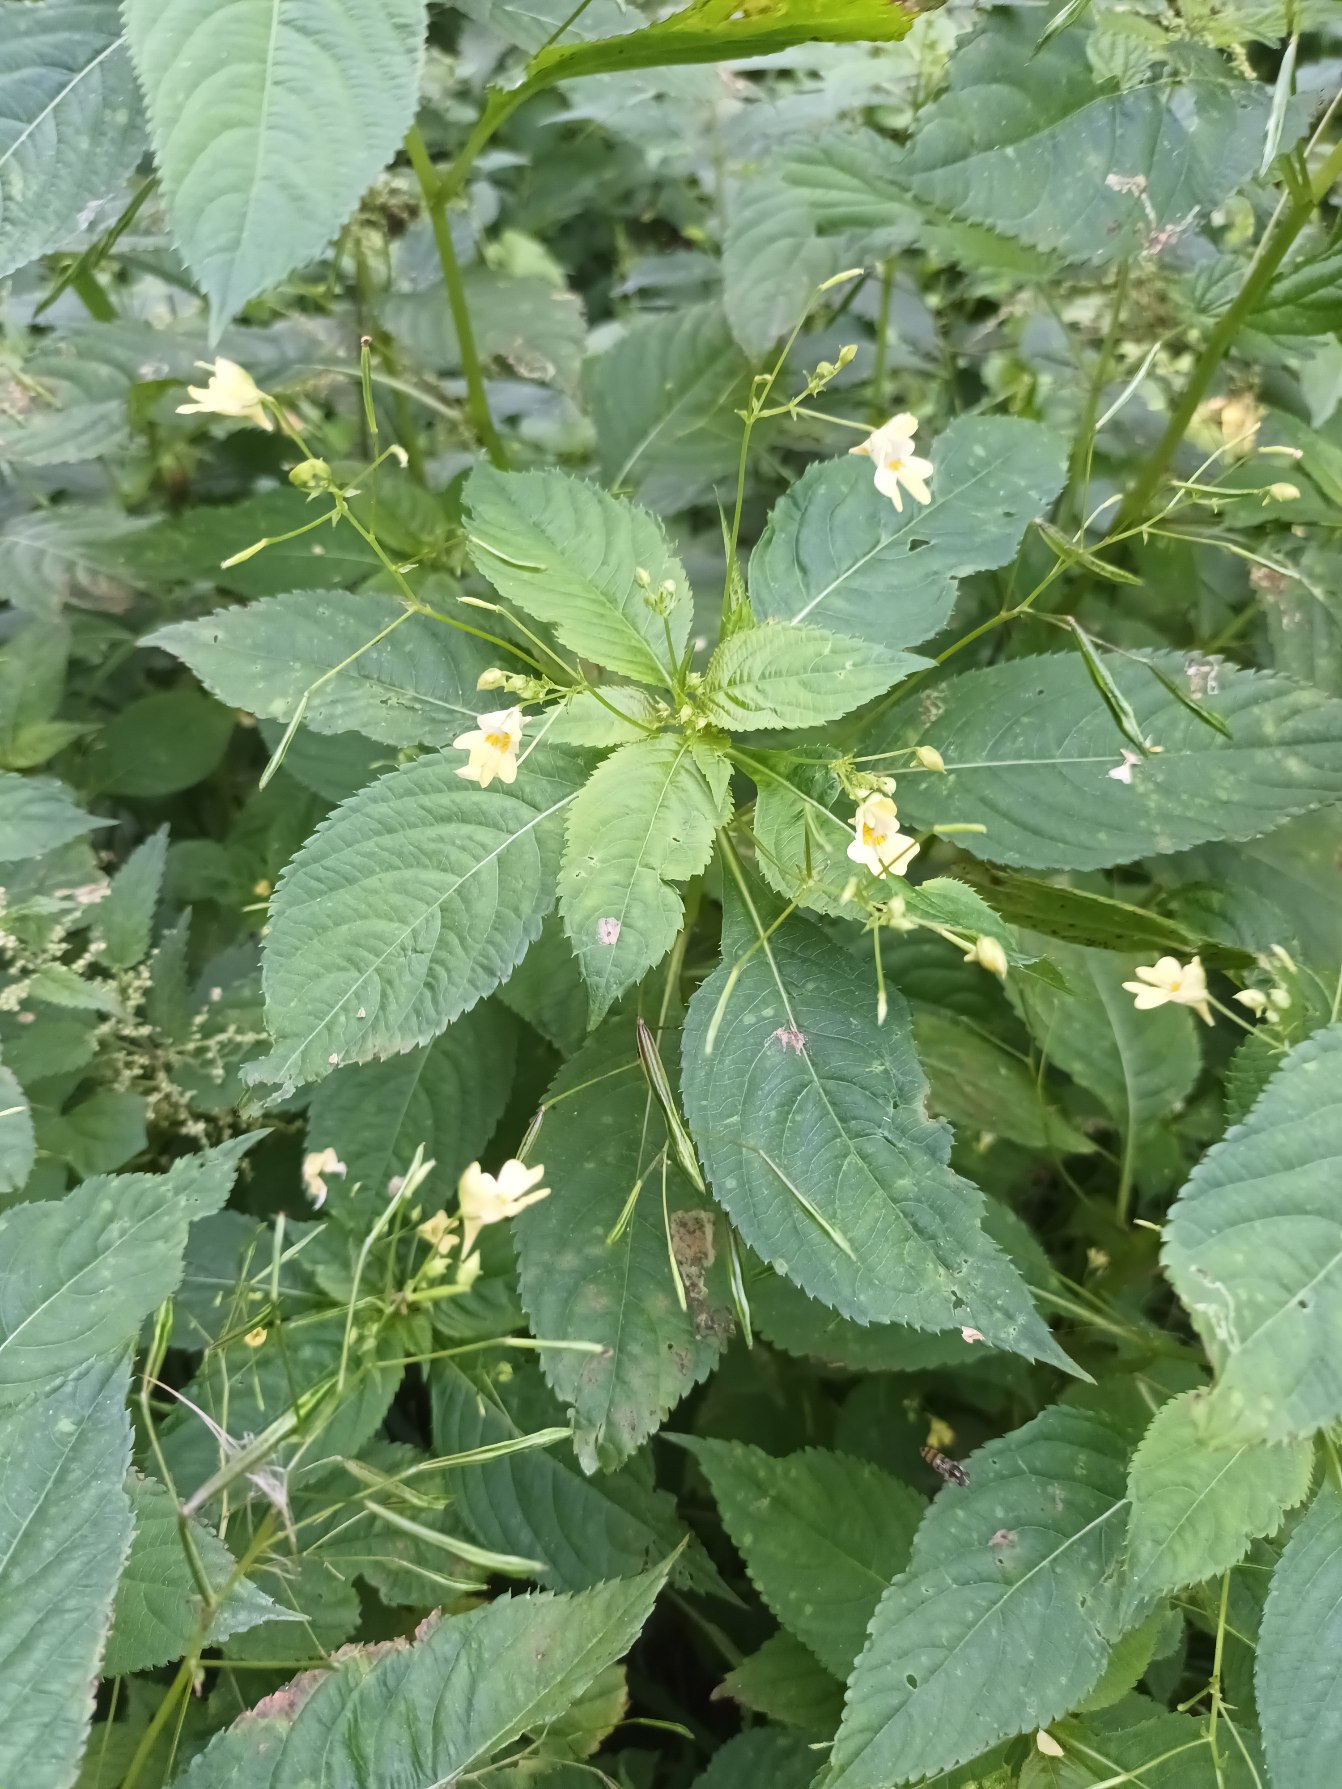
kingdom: Plantae
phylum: Tracheophyta
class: Magnoliopsida
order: Ericales
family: Balsaminaceae
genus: Impatiens
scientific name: Impatiens parviflora
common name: Småblomstret balsamin
